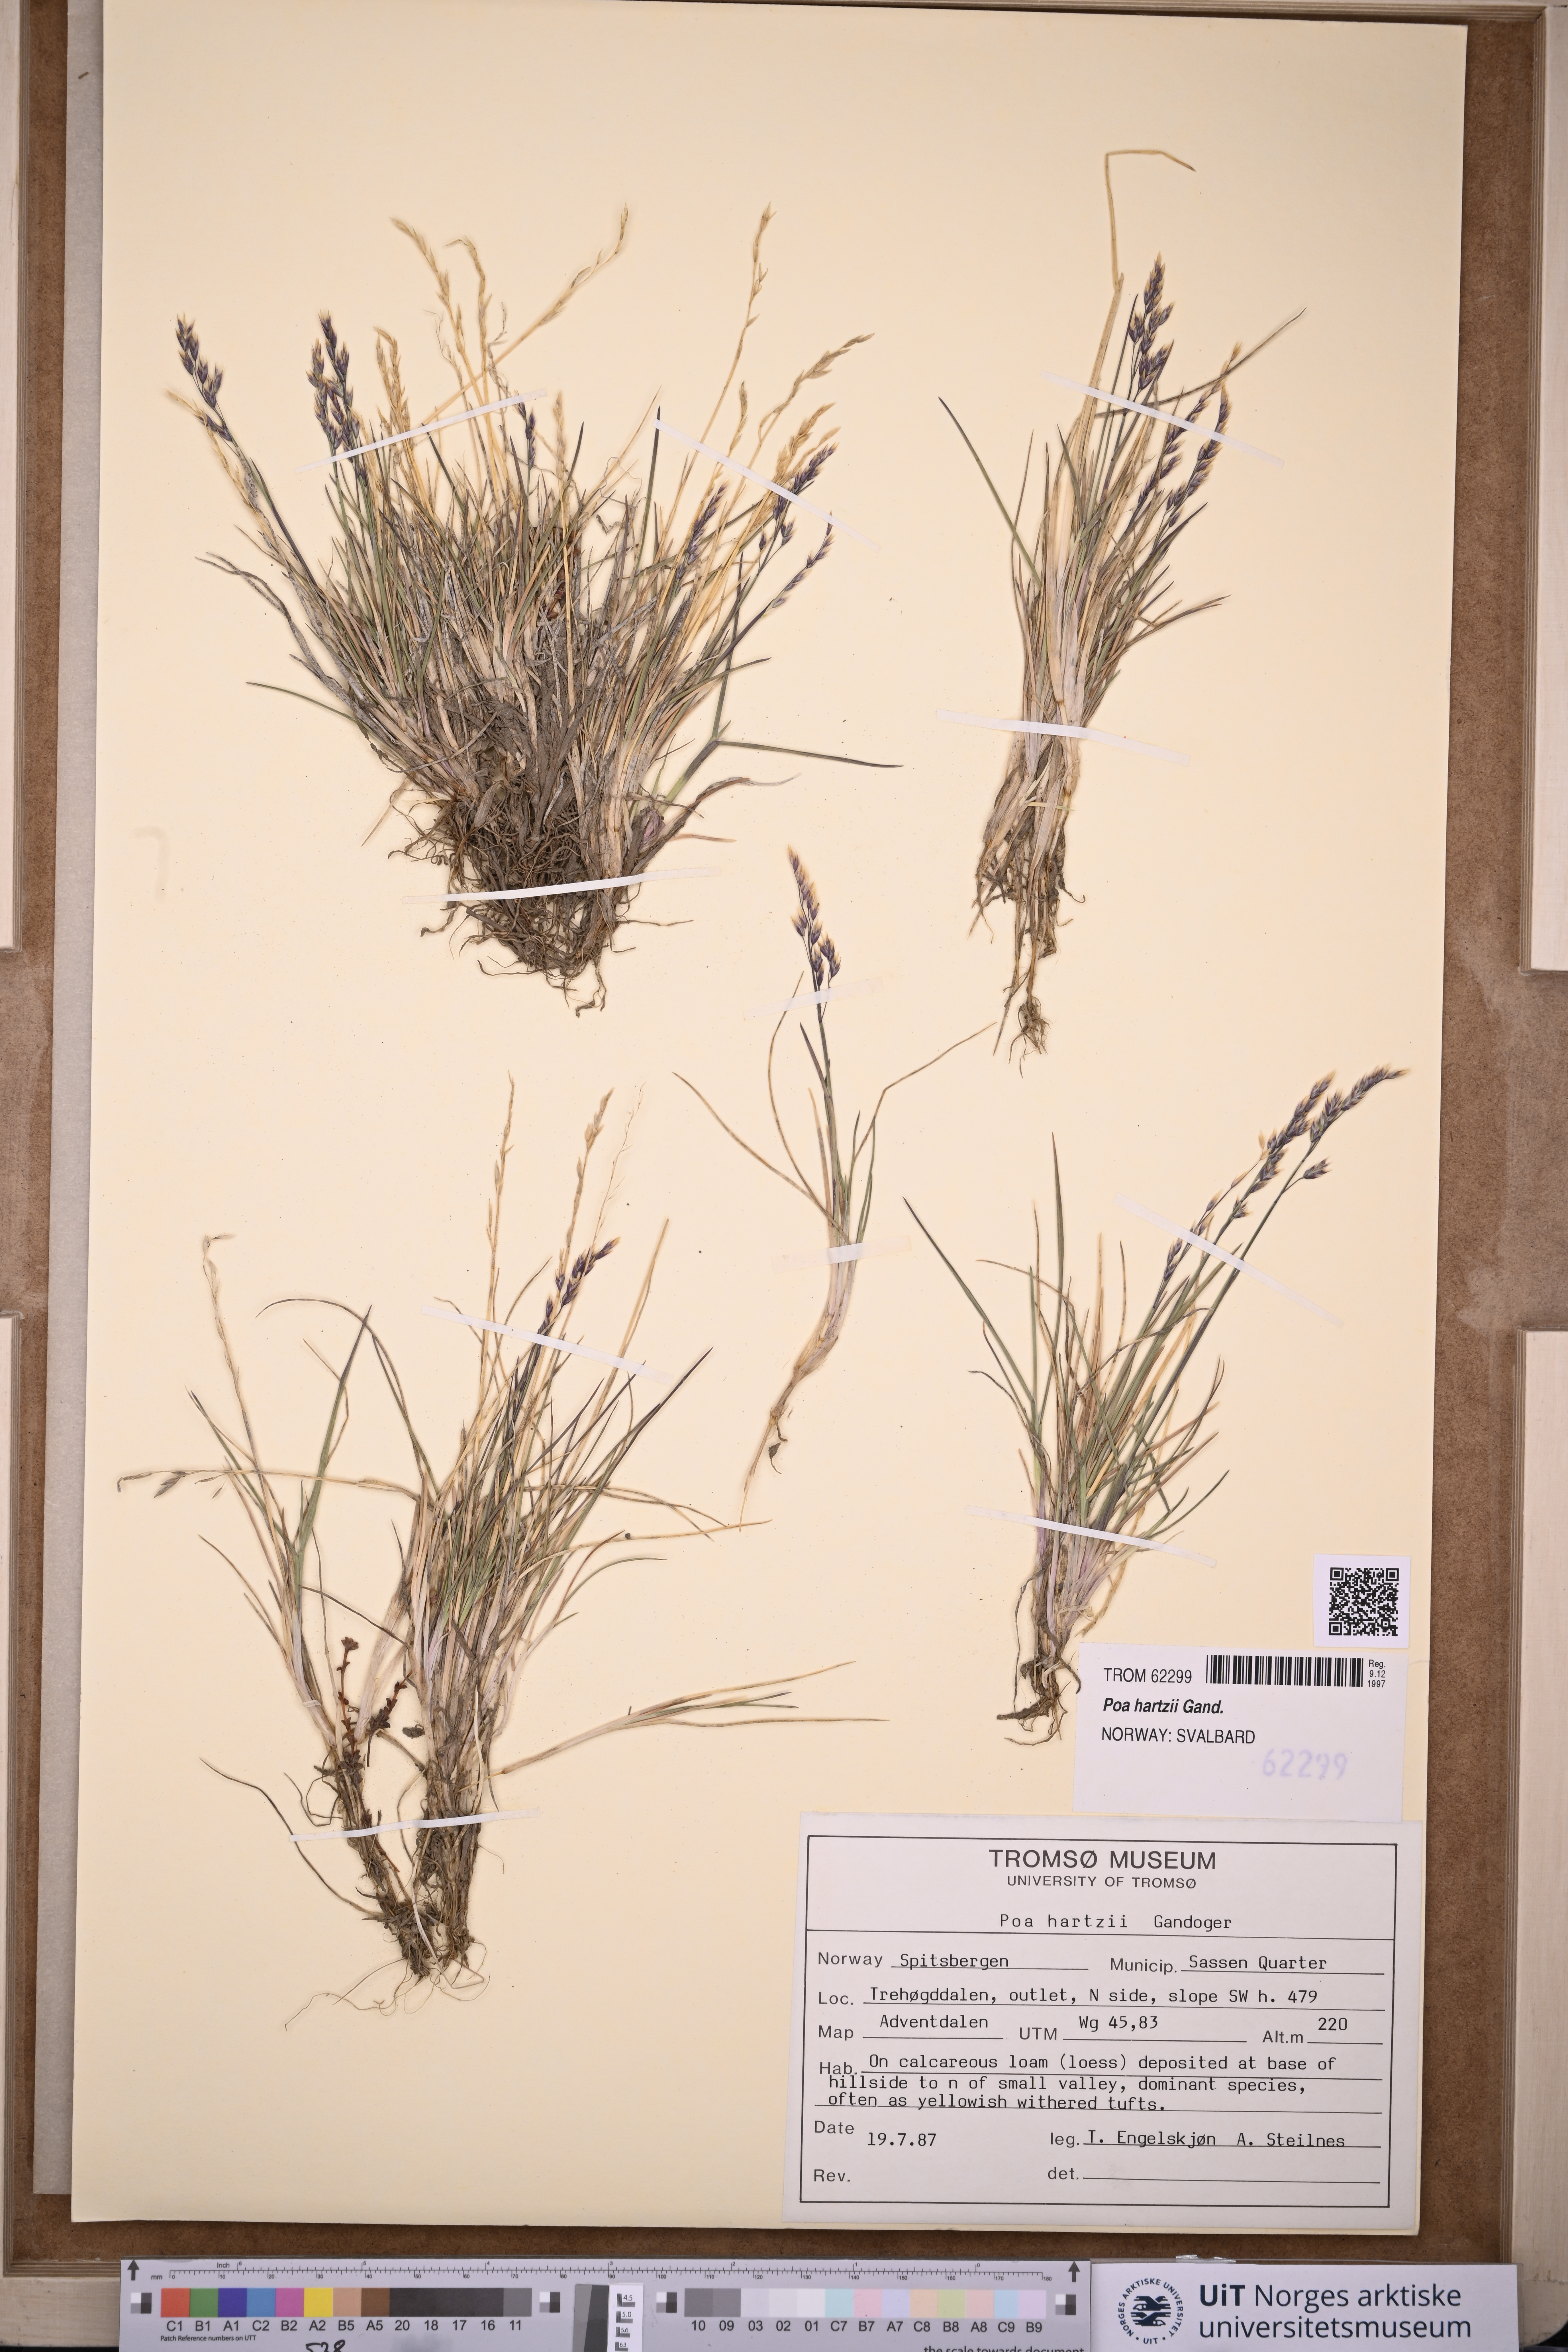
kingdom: Plantae
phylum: Tracheophyta
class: Liliopsida
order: Poales
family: Poaceae
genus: Poa
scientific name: Poa hartzii
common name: Hartz's bluegrass
